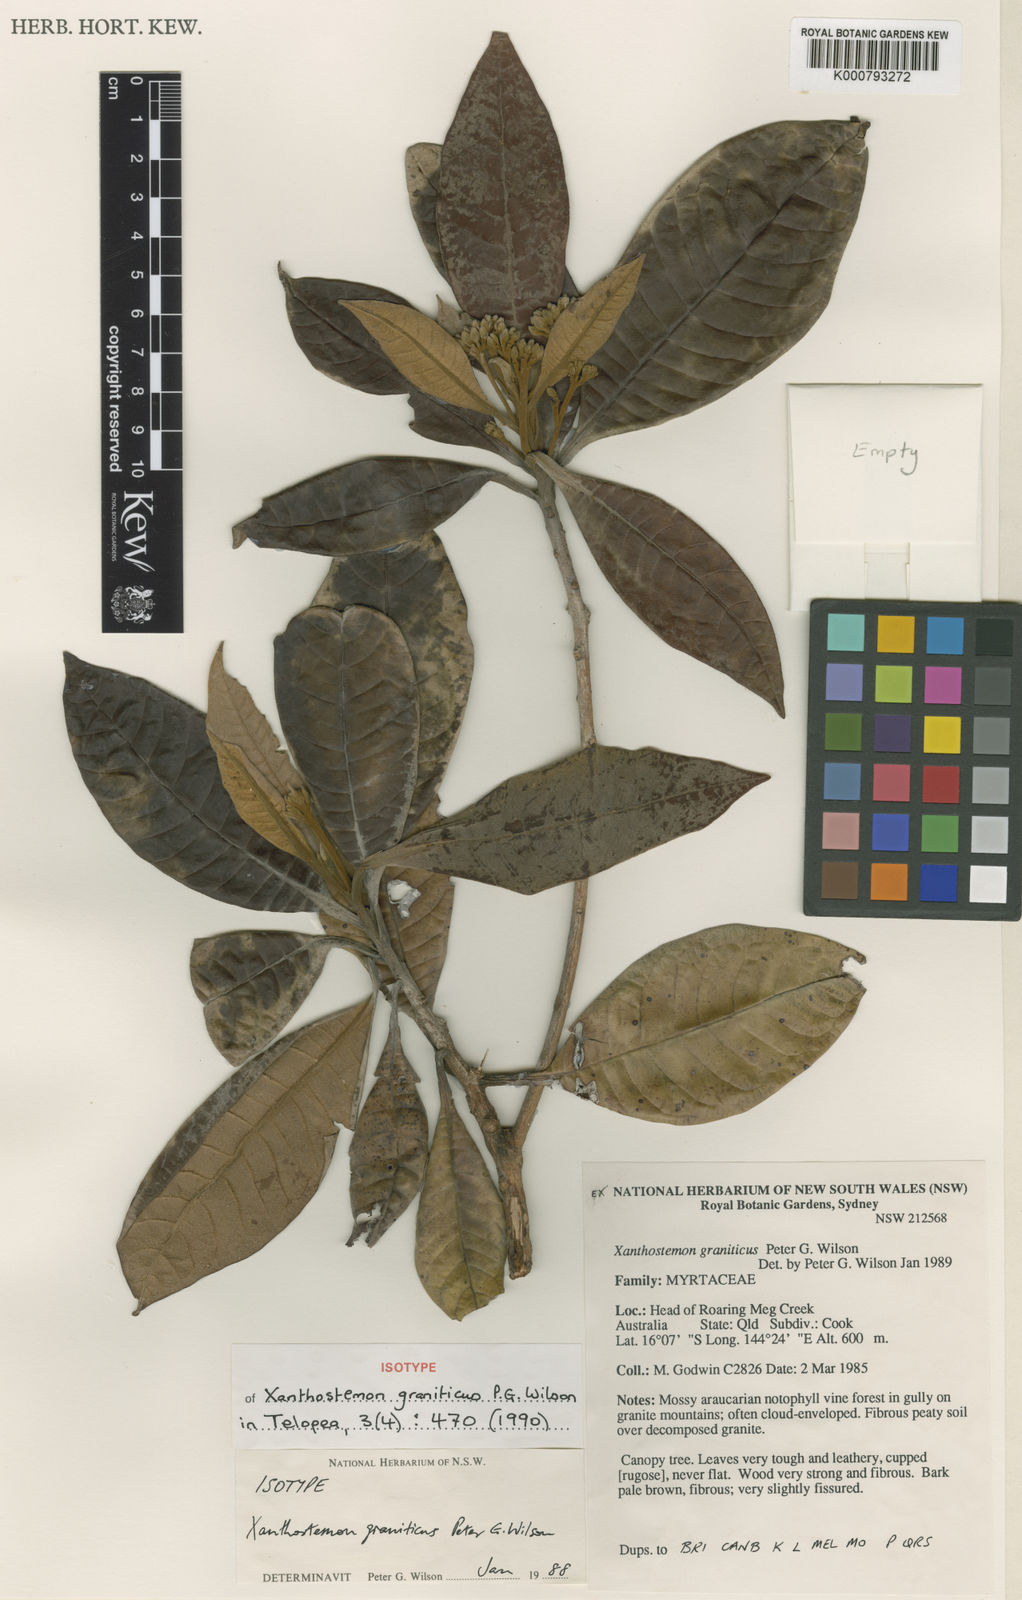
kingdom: Plantae
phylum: Tracheophyta
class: Magnoliopsida
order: Myrtales
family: Myrtaceae
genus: Xanthostemon
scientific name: Xanthostemon graniticus
